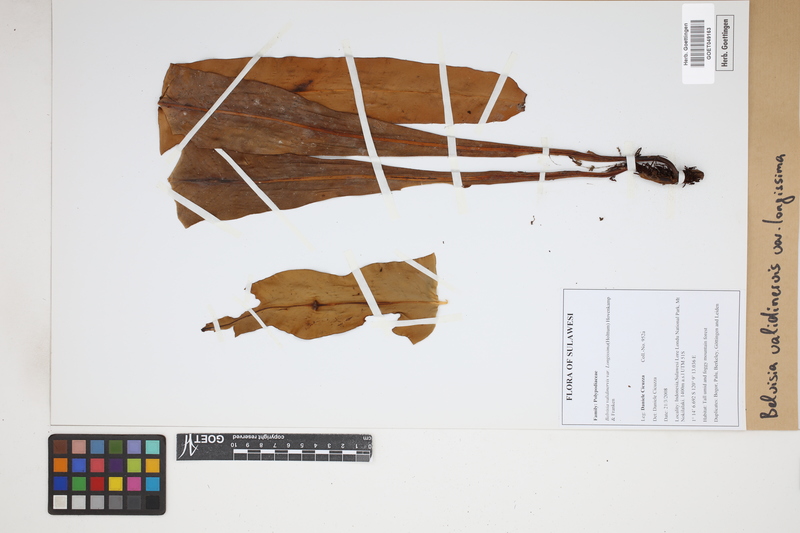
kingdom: Plantae
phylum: Tracheophyta
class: Polypodiopsida
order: Polypodiales
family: Polypodiaceae
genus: Lepisorus
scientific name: Lepisorus validinervis
